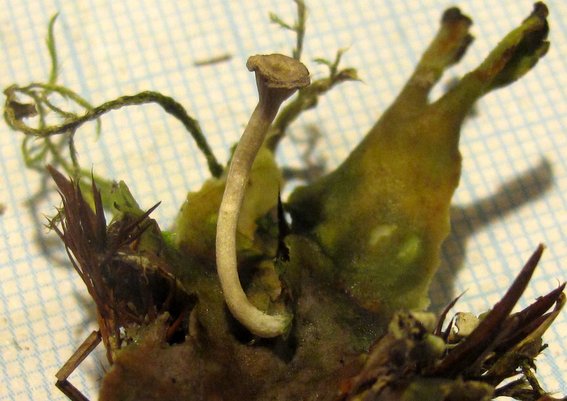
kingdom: Fungi
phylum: Basidiomycota
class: Agaricomycetes
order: Agaricales
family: Hygrophoraceae
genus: Arrhenia
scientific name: Arrhenia peltigerina
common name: skjoldlav-fontænehat
